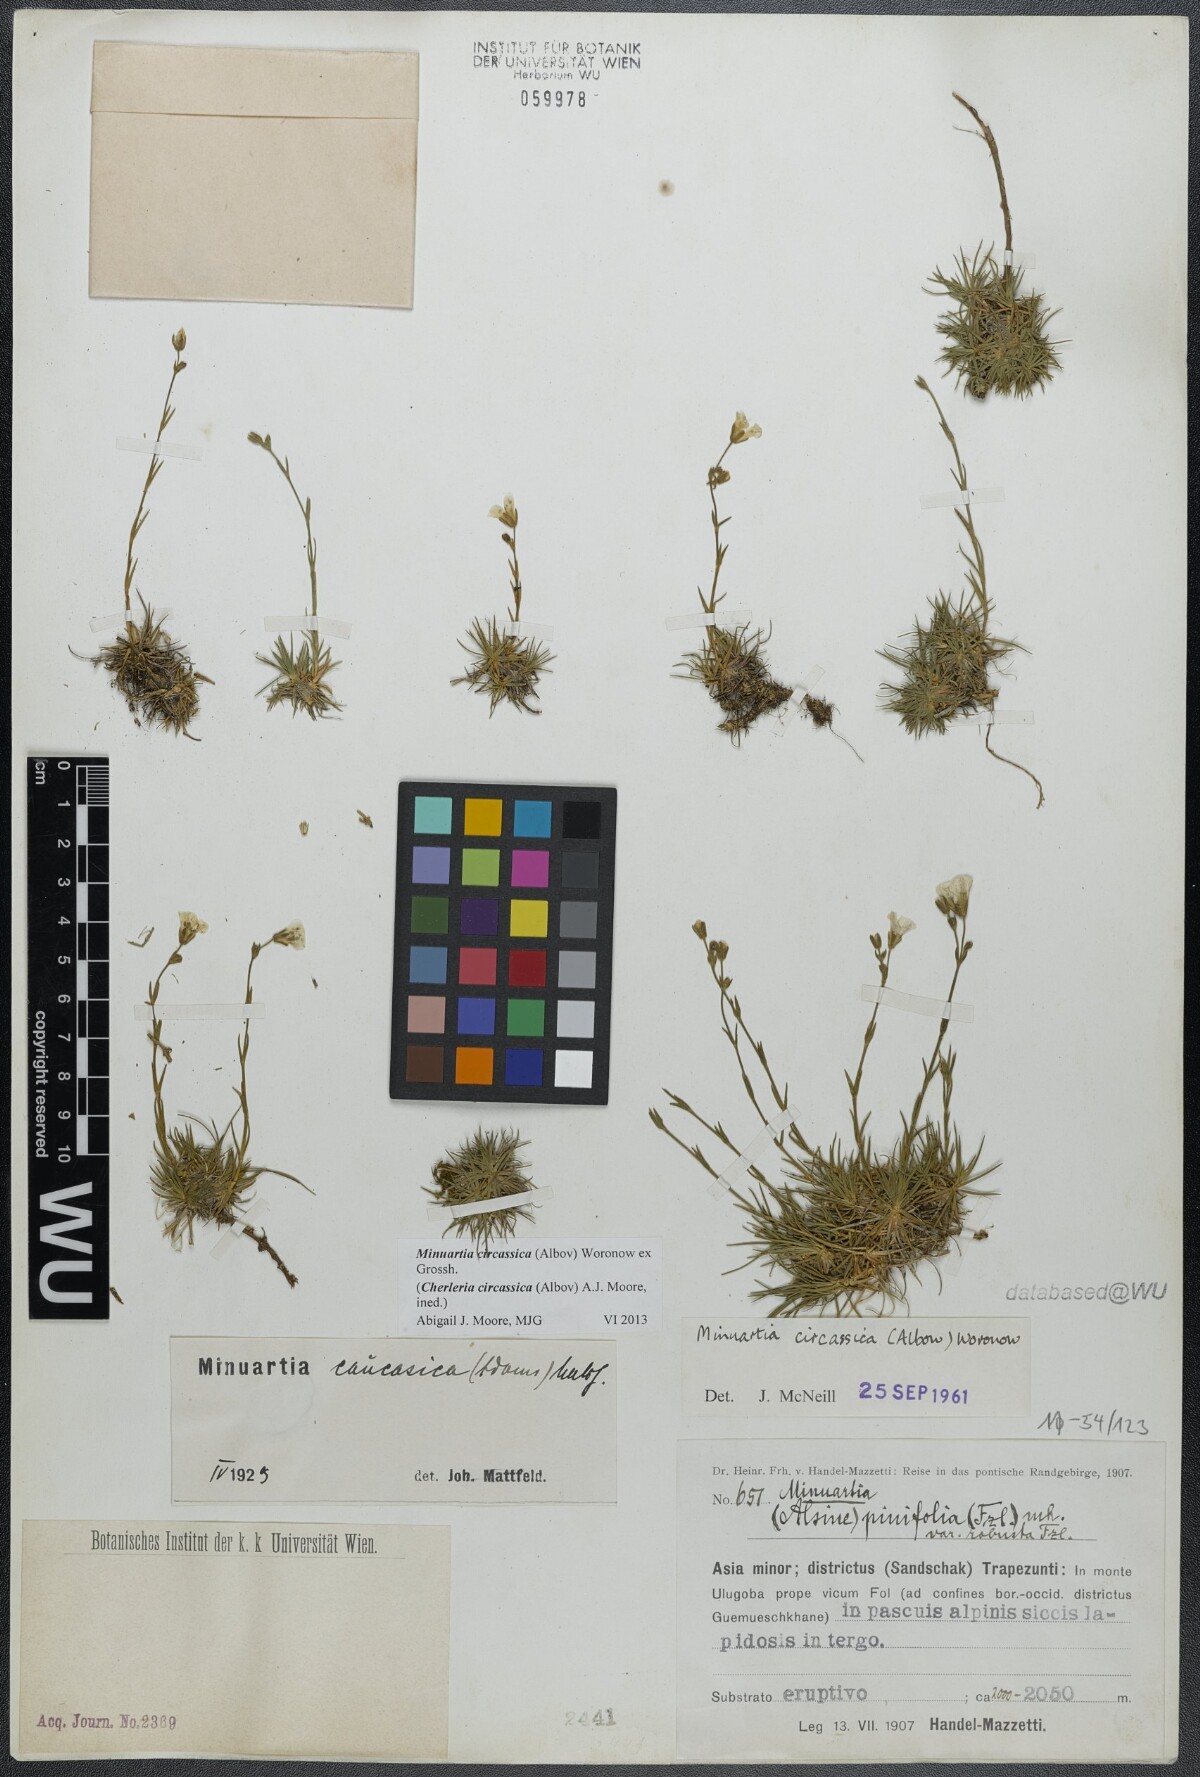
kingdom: Plantae
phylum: Tracheophyta
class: Magnoliopsida
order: Caryophyllales
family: Caryophyllaceae
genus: Cherleria
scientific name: Cherleria circassica
